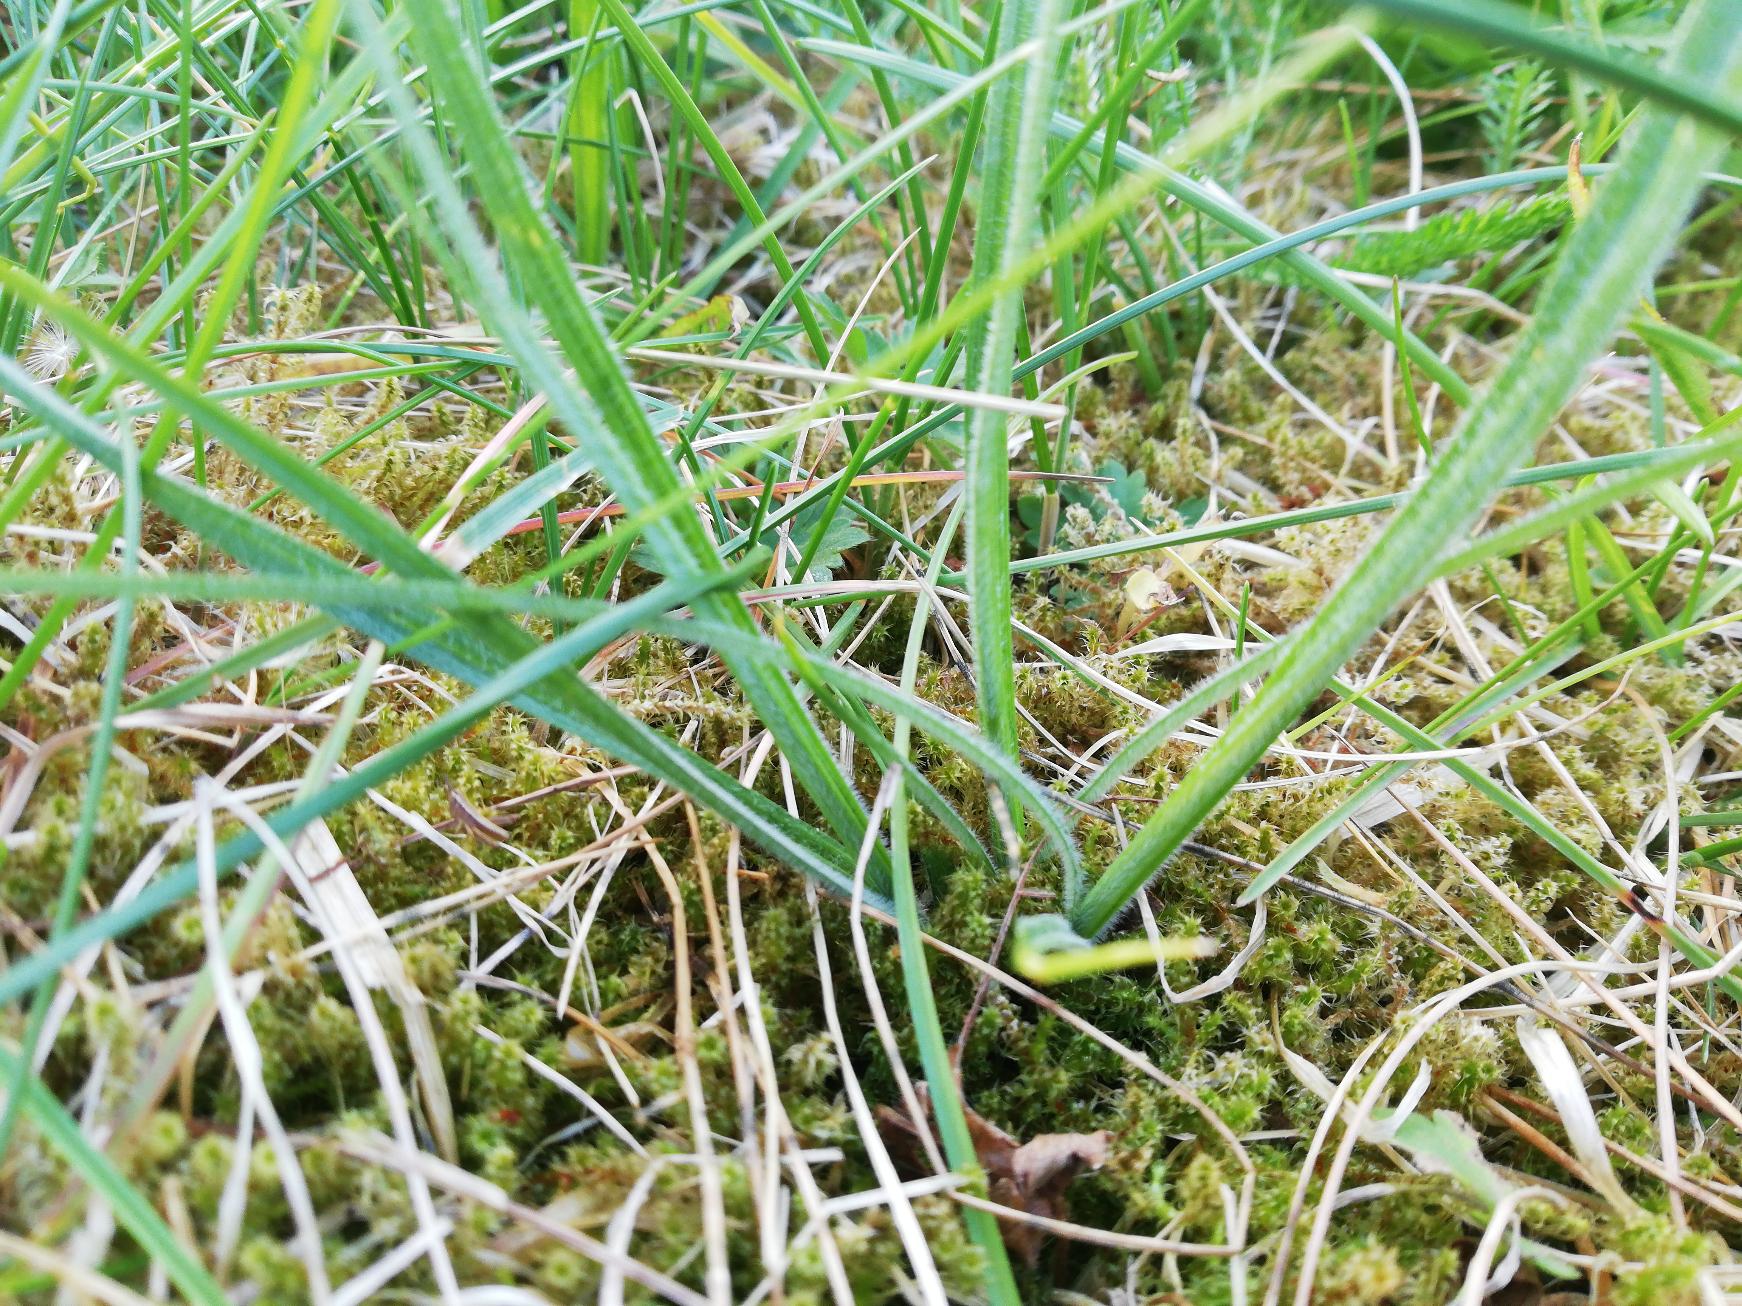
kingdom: Plantae
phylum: Tracheophyta
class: Liliopsida
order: Poales
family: Cyperaceae
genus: Carex
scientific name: Carex hirta
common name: Håret star
